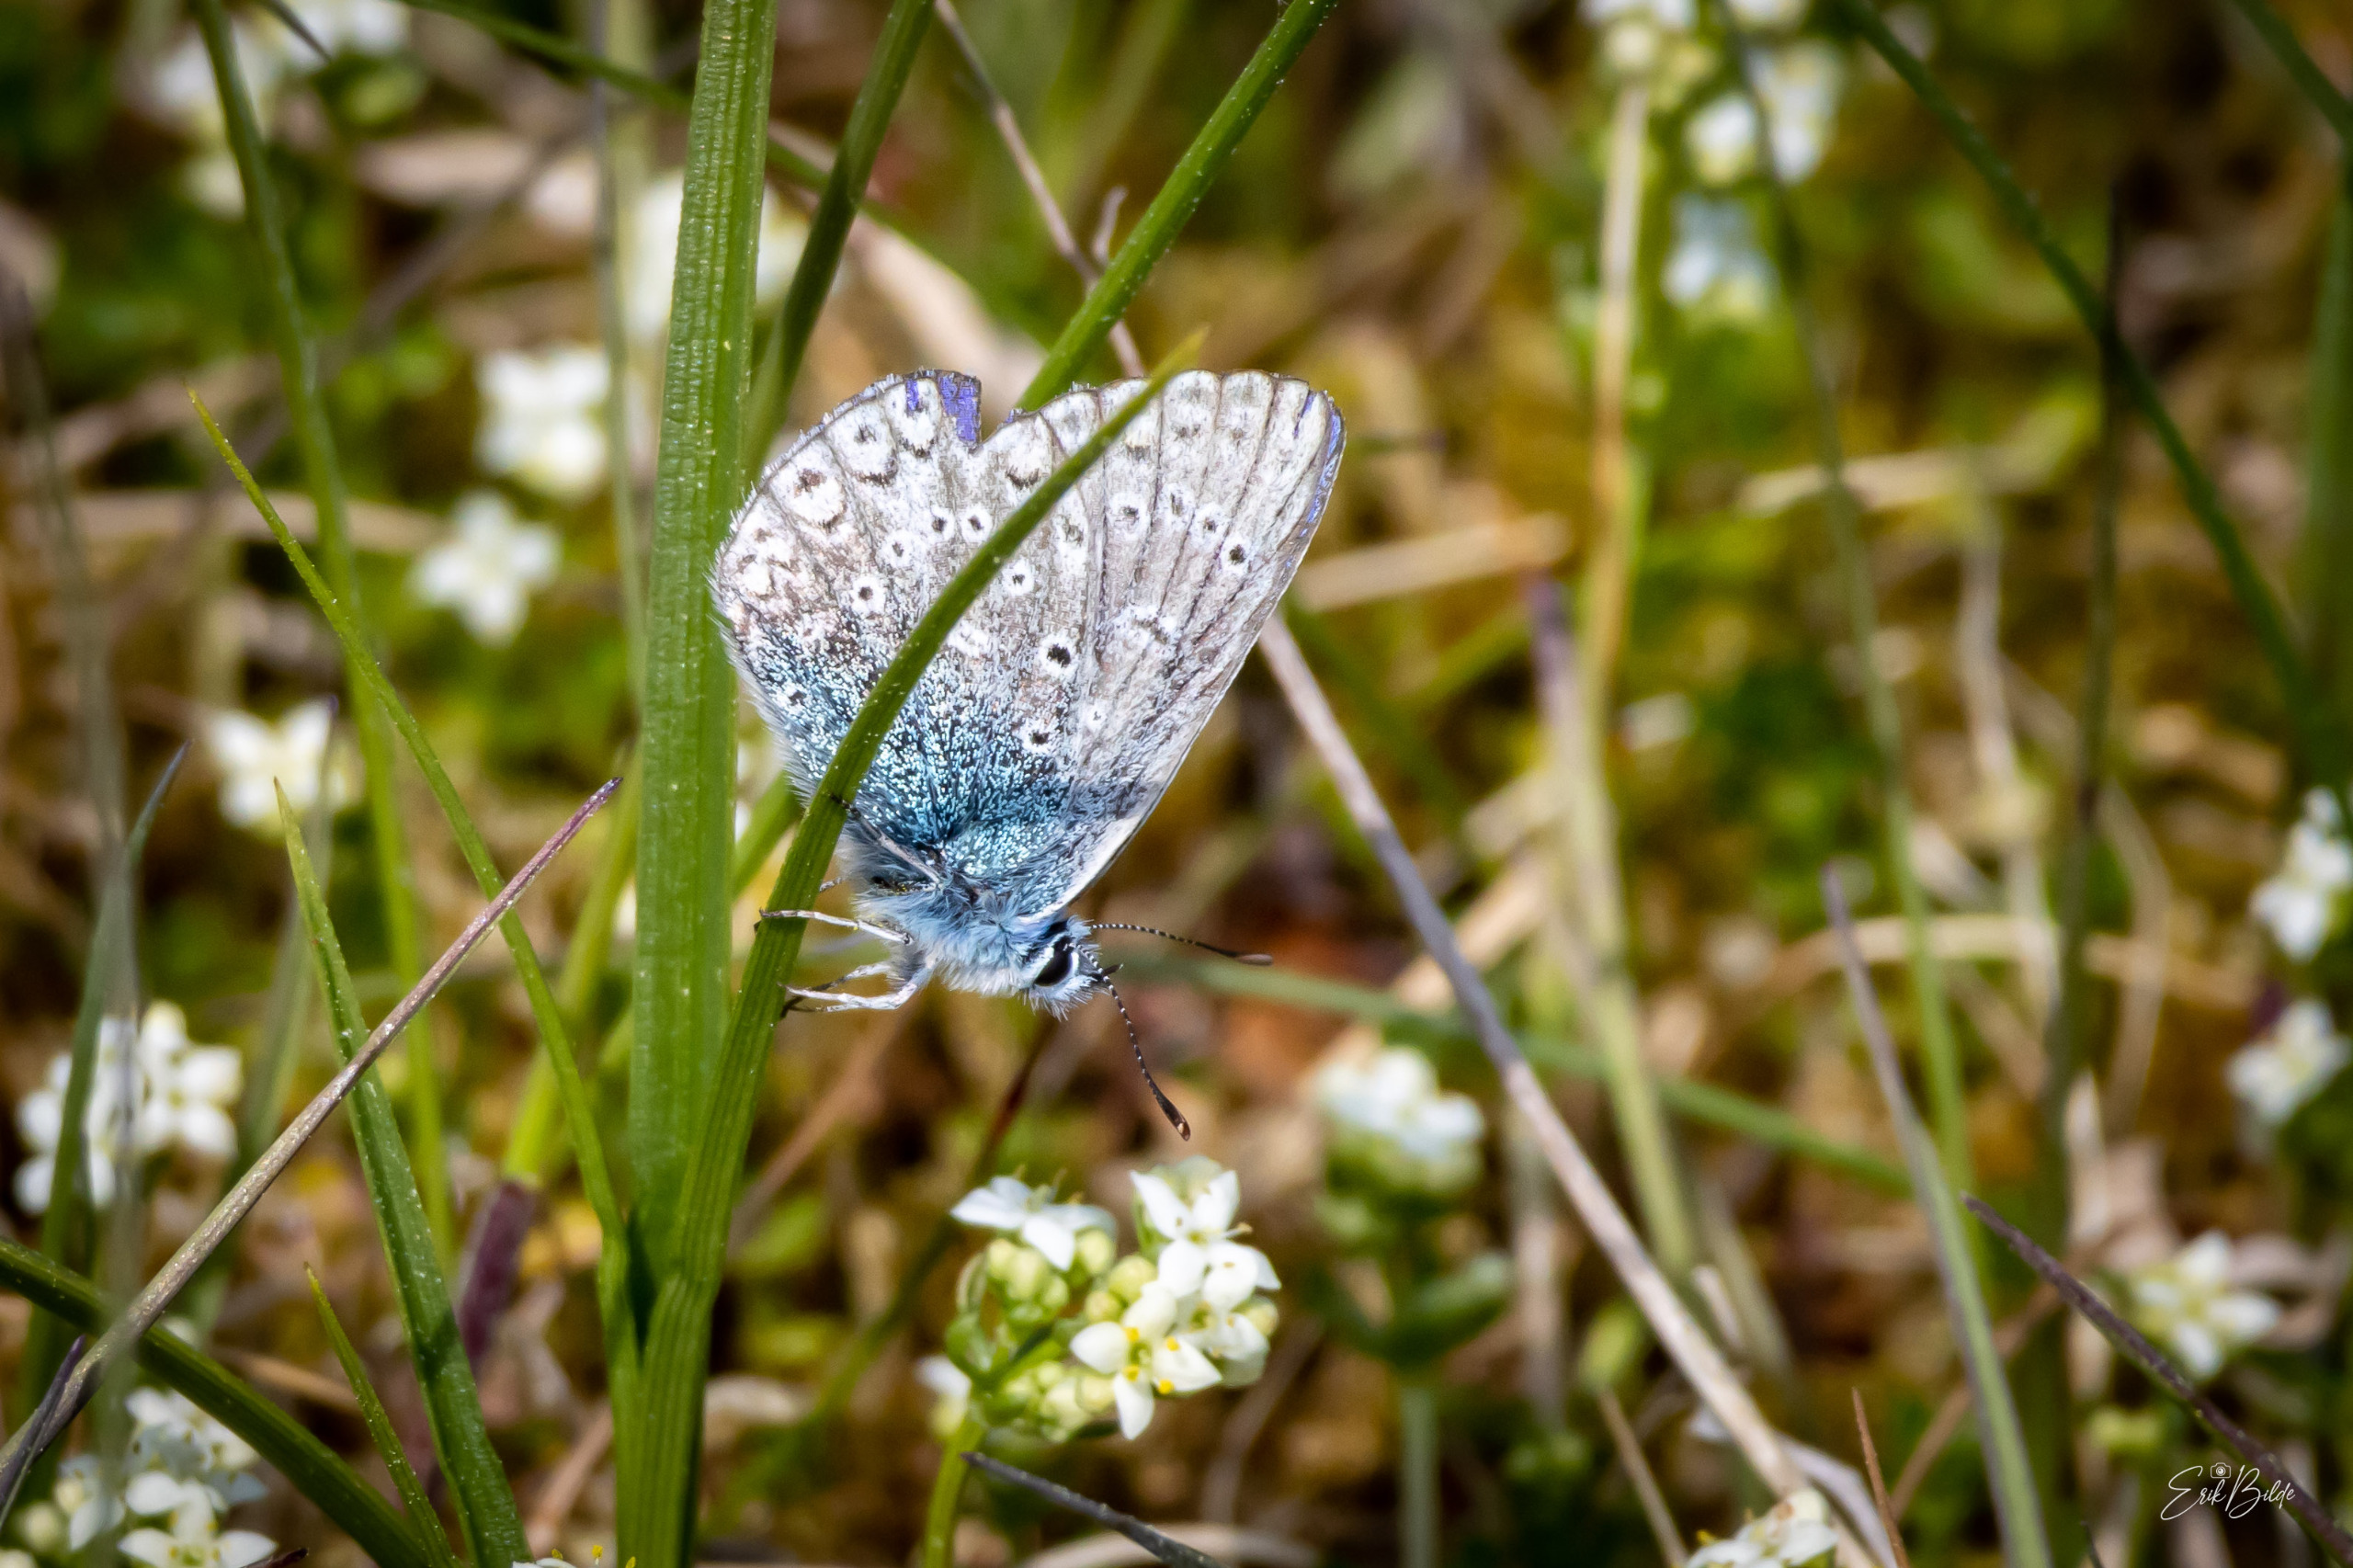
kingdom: Animalia
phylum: Arthropoda
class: Insecta
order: Lepidoptera
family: Lycaenidae
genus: Polyommatus
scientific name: Polyommatus icarus
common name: Almindelig blåfugl
